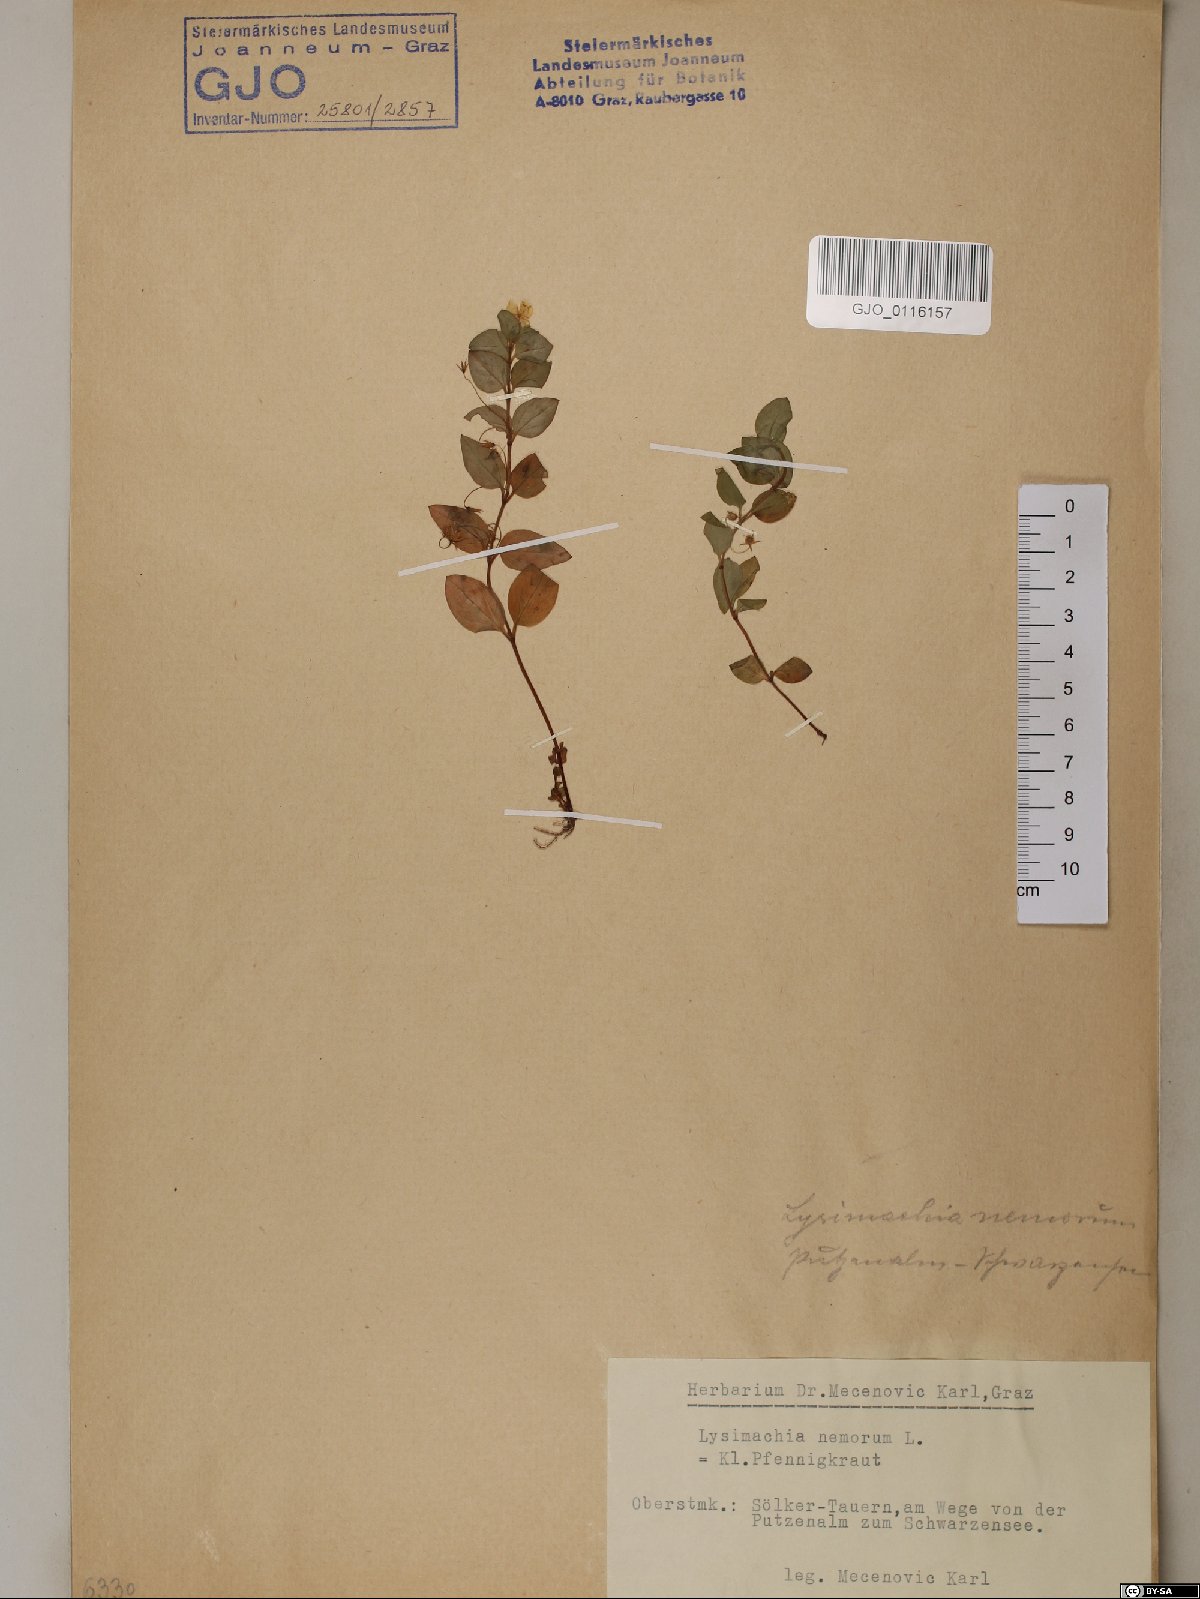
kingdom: Plantae
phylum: Tracheophyta
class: Magnoliopsida
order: Ericales
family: Primulaceae
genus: Lysimachia
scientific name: Lysimachia nemorum
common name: Yellow pimpernel
